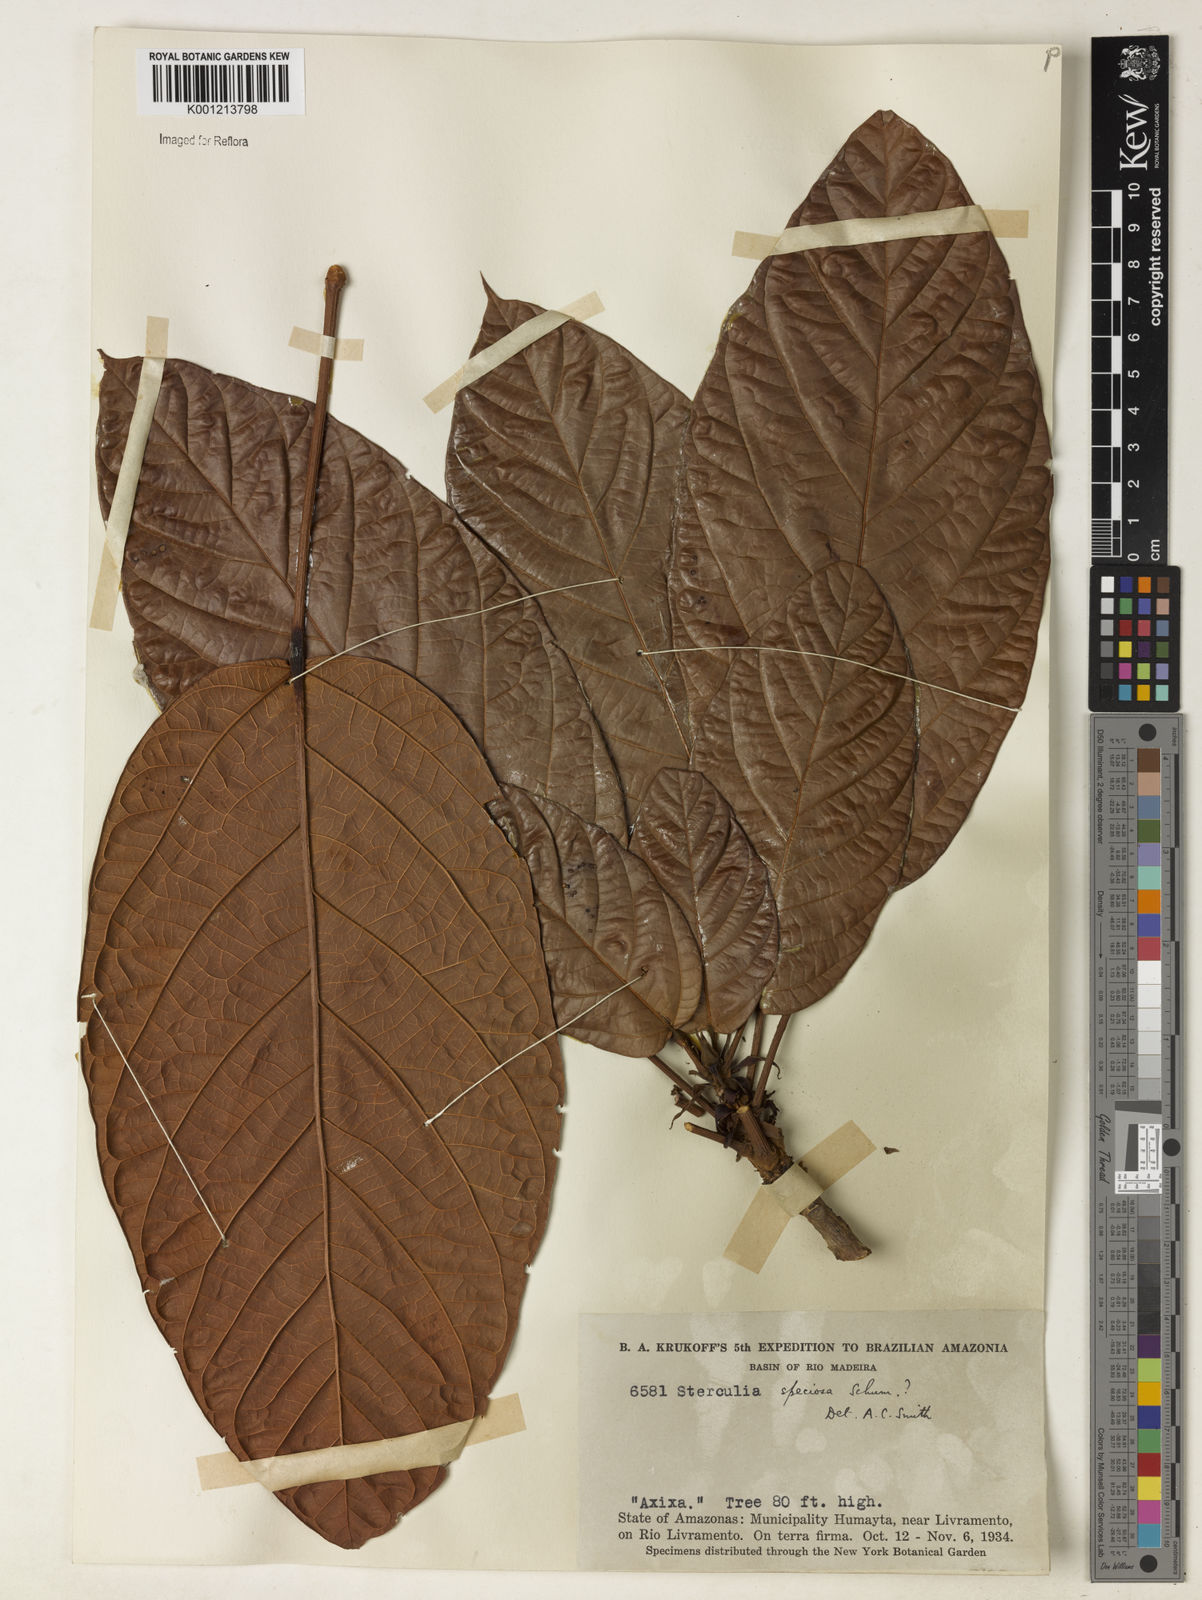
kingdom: Plantae
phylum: Tracheophyta
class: Magnoliopsida
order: Malvales
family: Malvaceae
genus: Sterculia
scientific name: Sterculia speciosa
